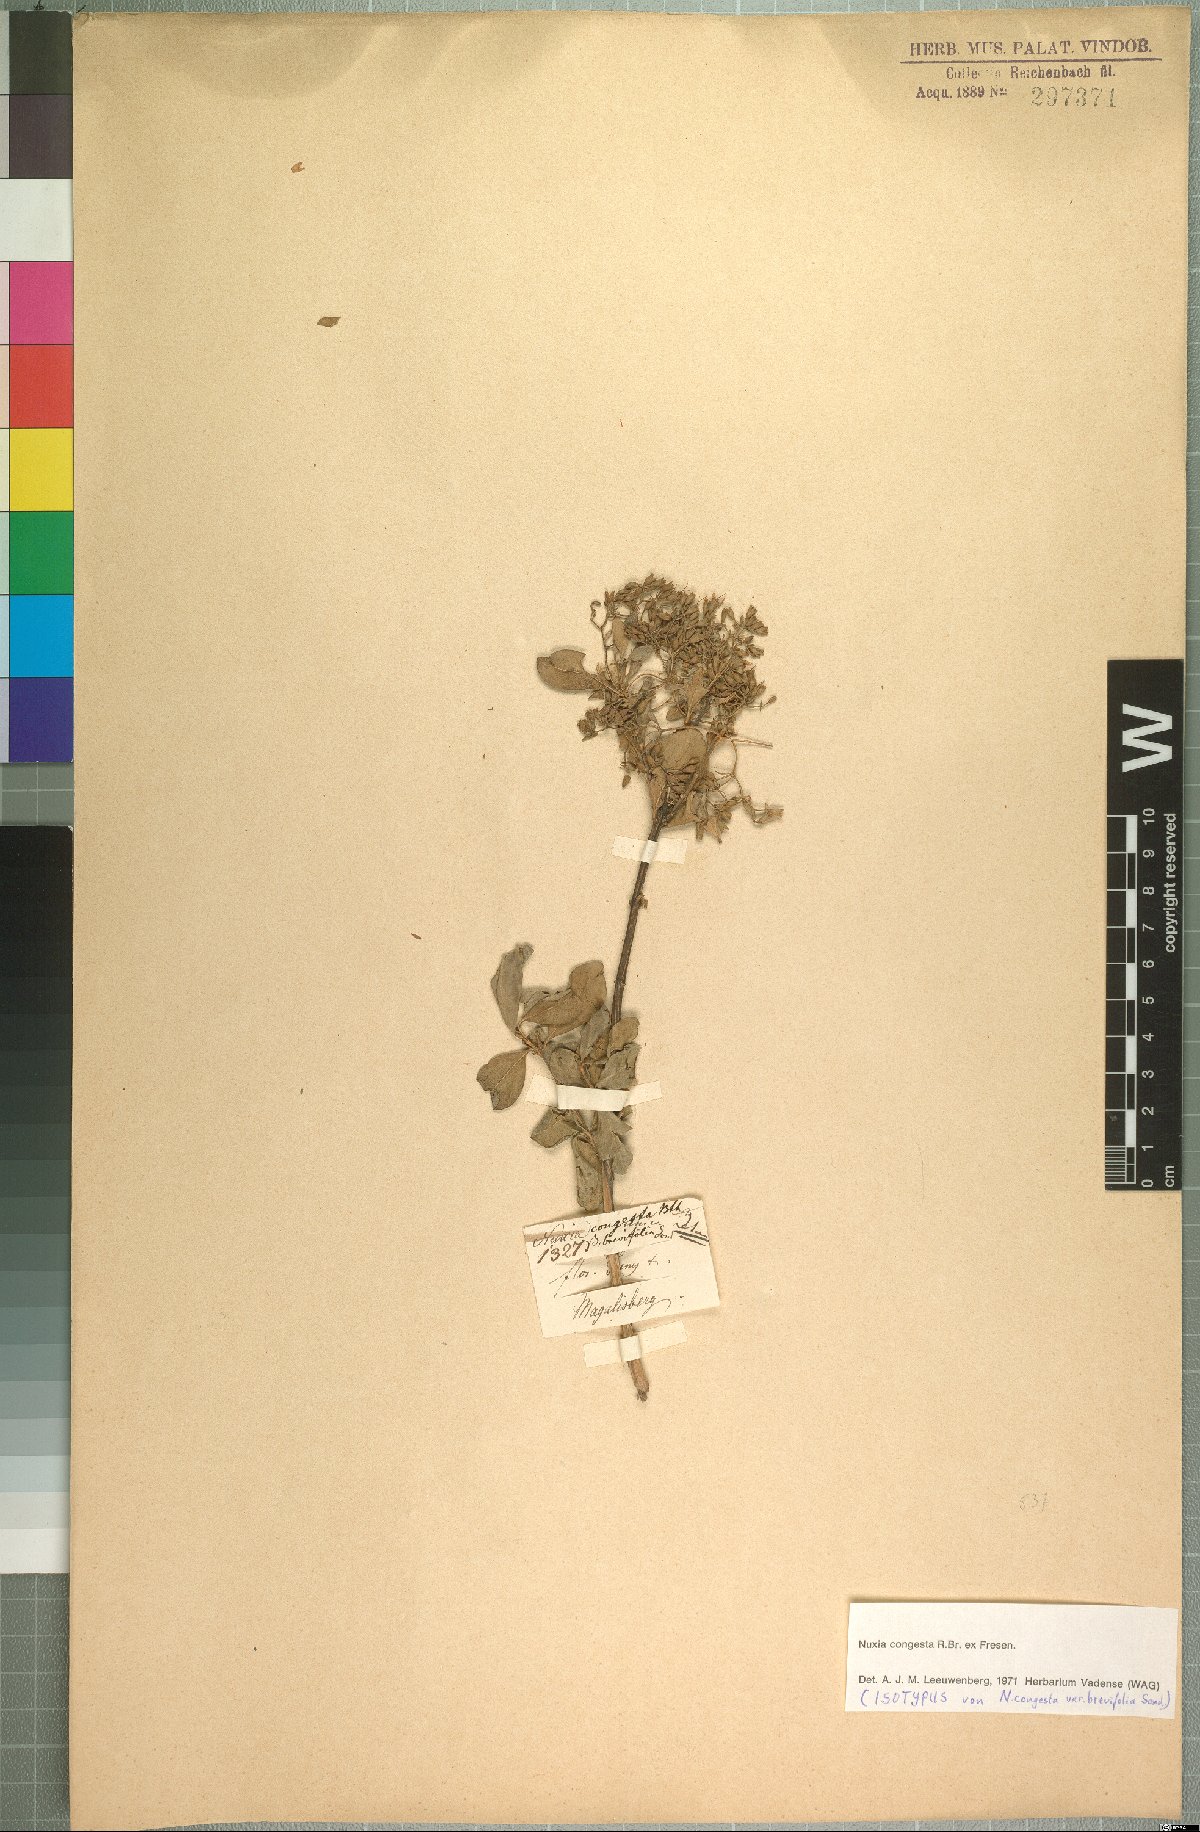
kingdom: Plantae
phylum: Tracheophyta
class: Magnoliopsida
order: Lamiales
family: Stilbaceae
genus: Nuxia
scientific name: Nuxia congesta
